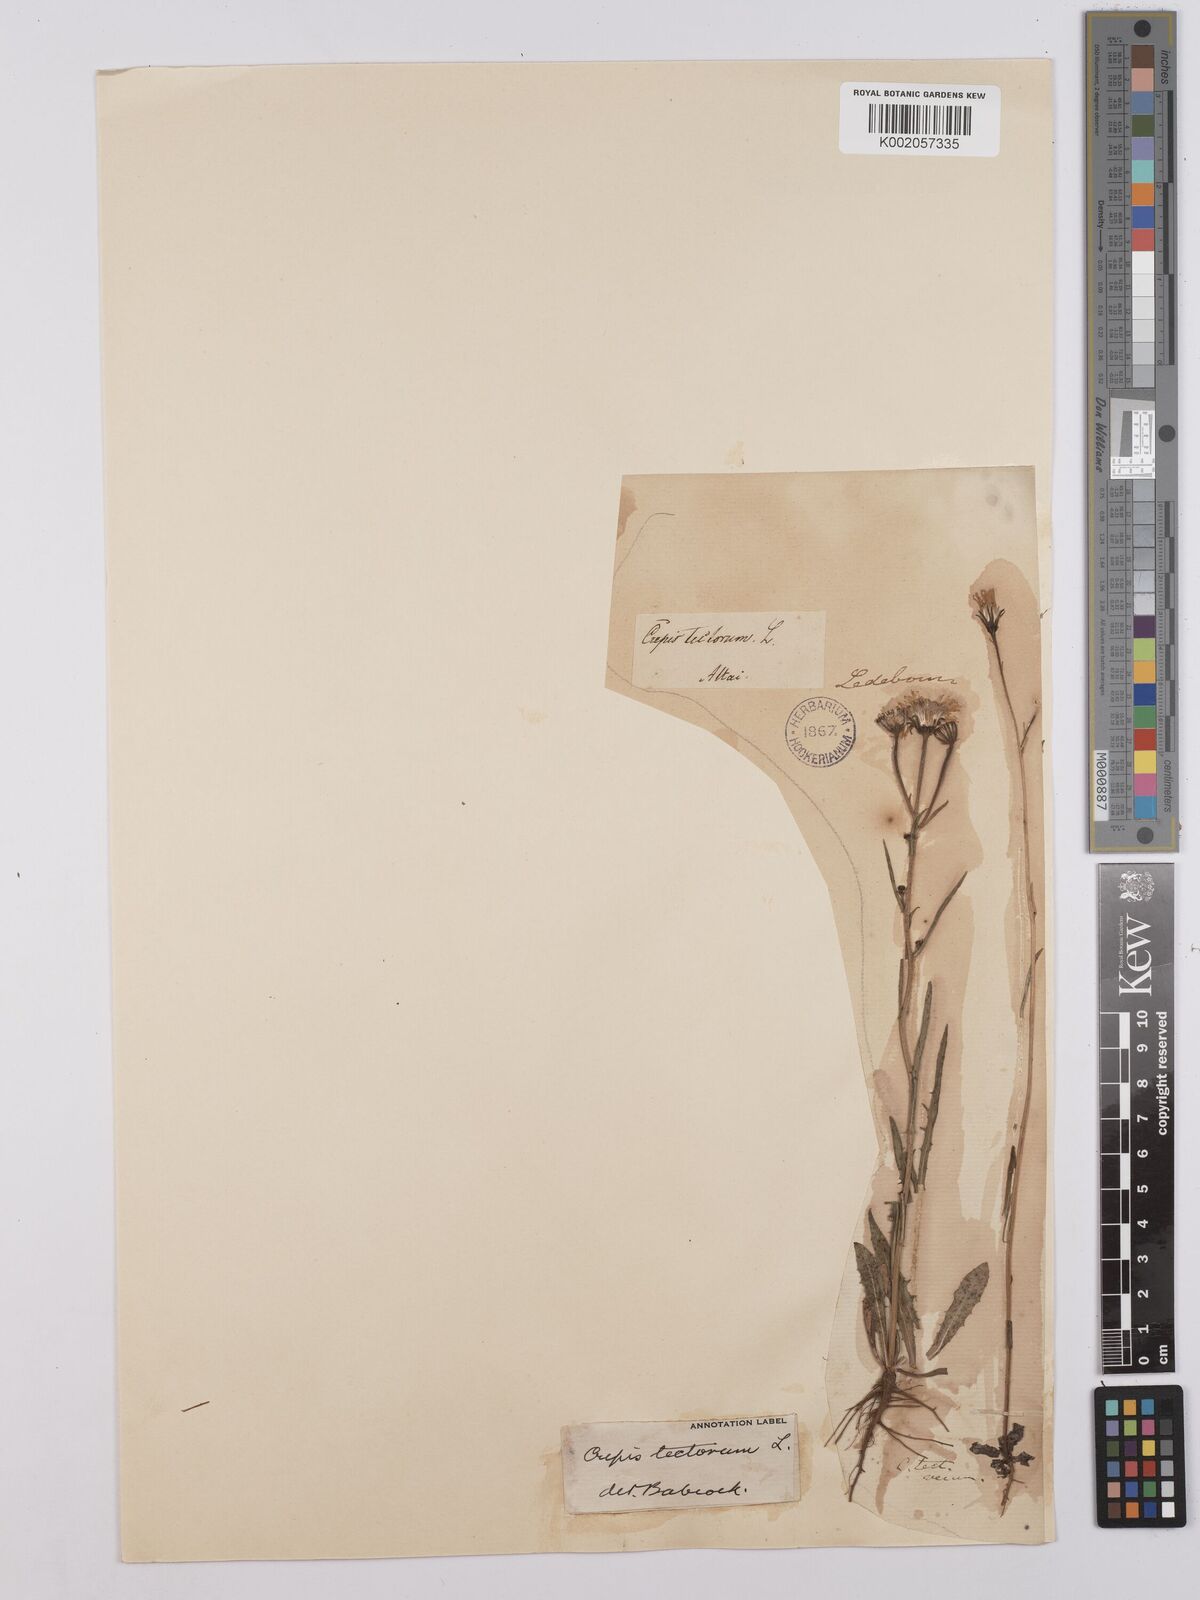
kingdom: Plantae
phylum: Tracheophyta
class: Magnoliopsida
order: Asterales
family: Asteraceae
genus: Crepis
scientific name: Crepis tectorum
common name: Narrow-leaved hawk's-beard
